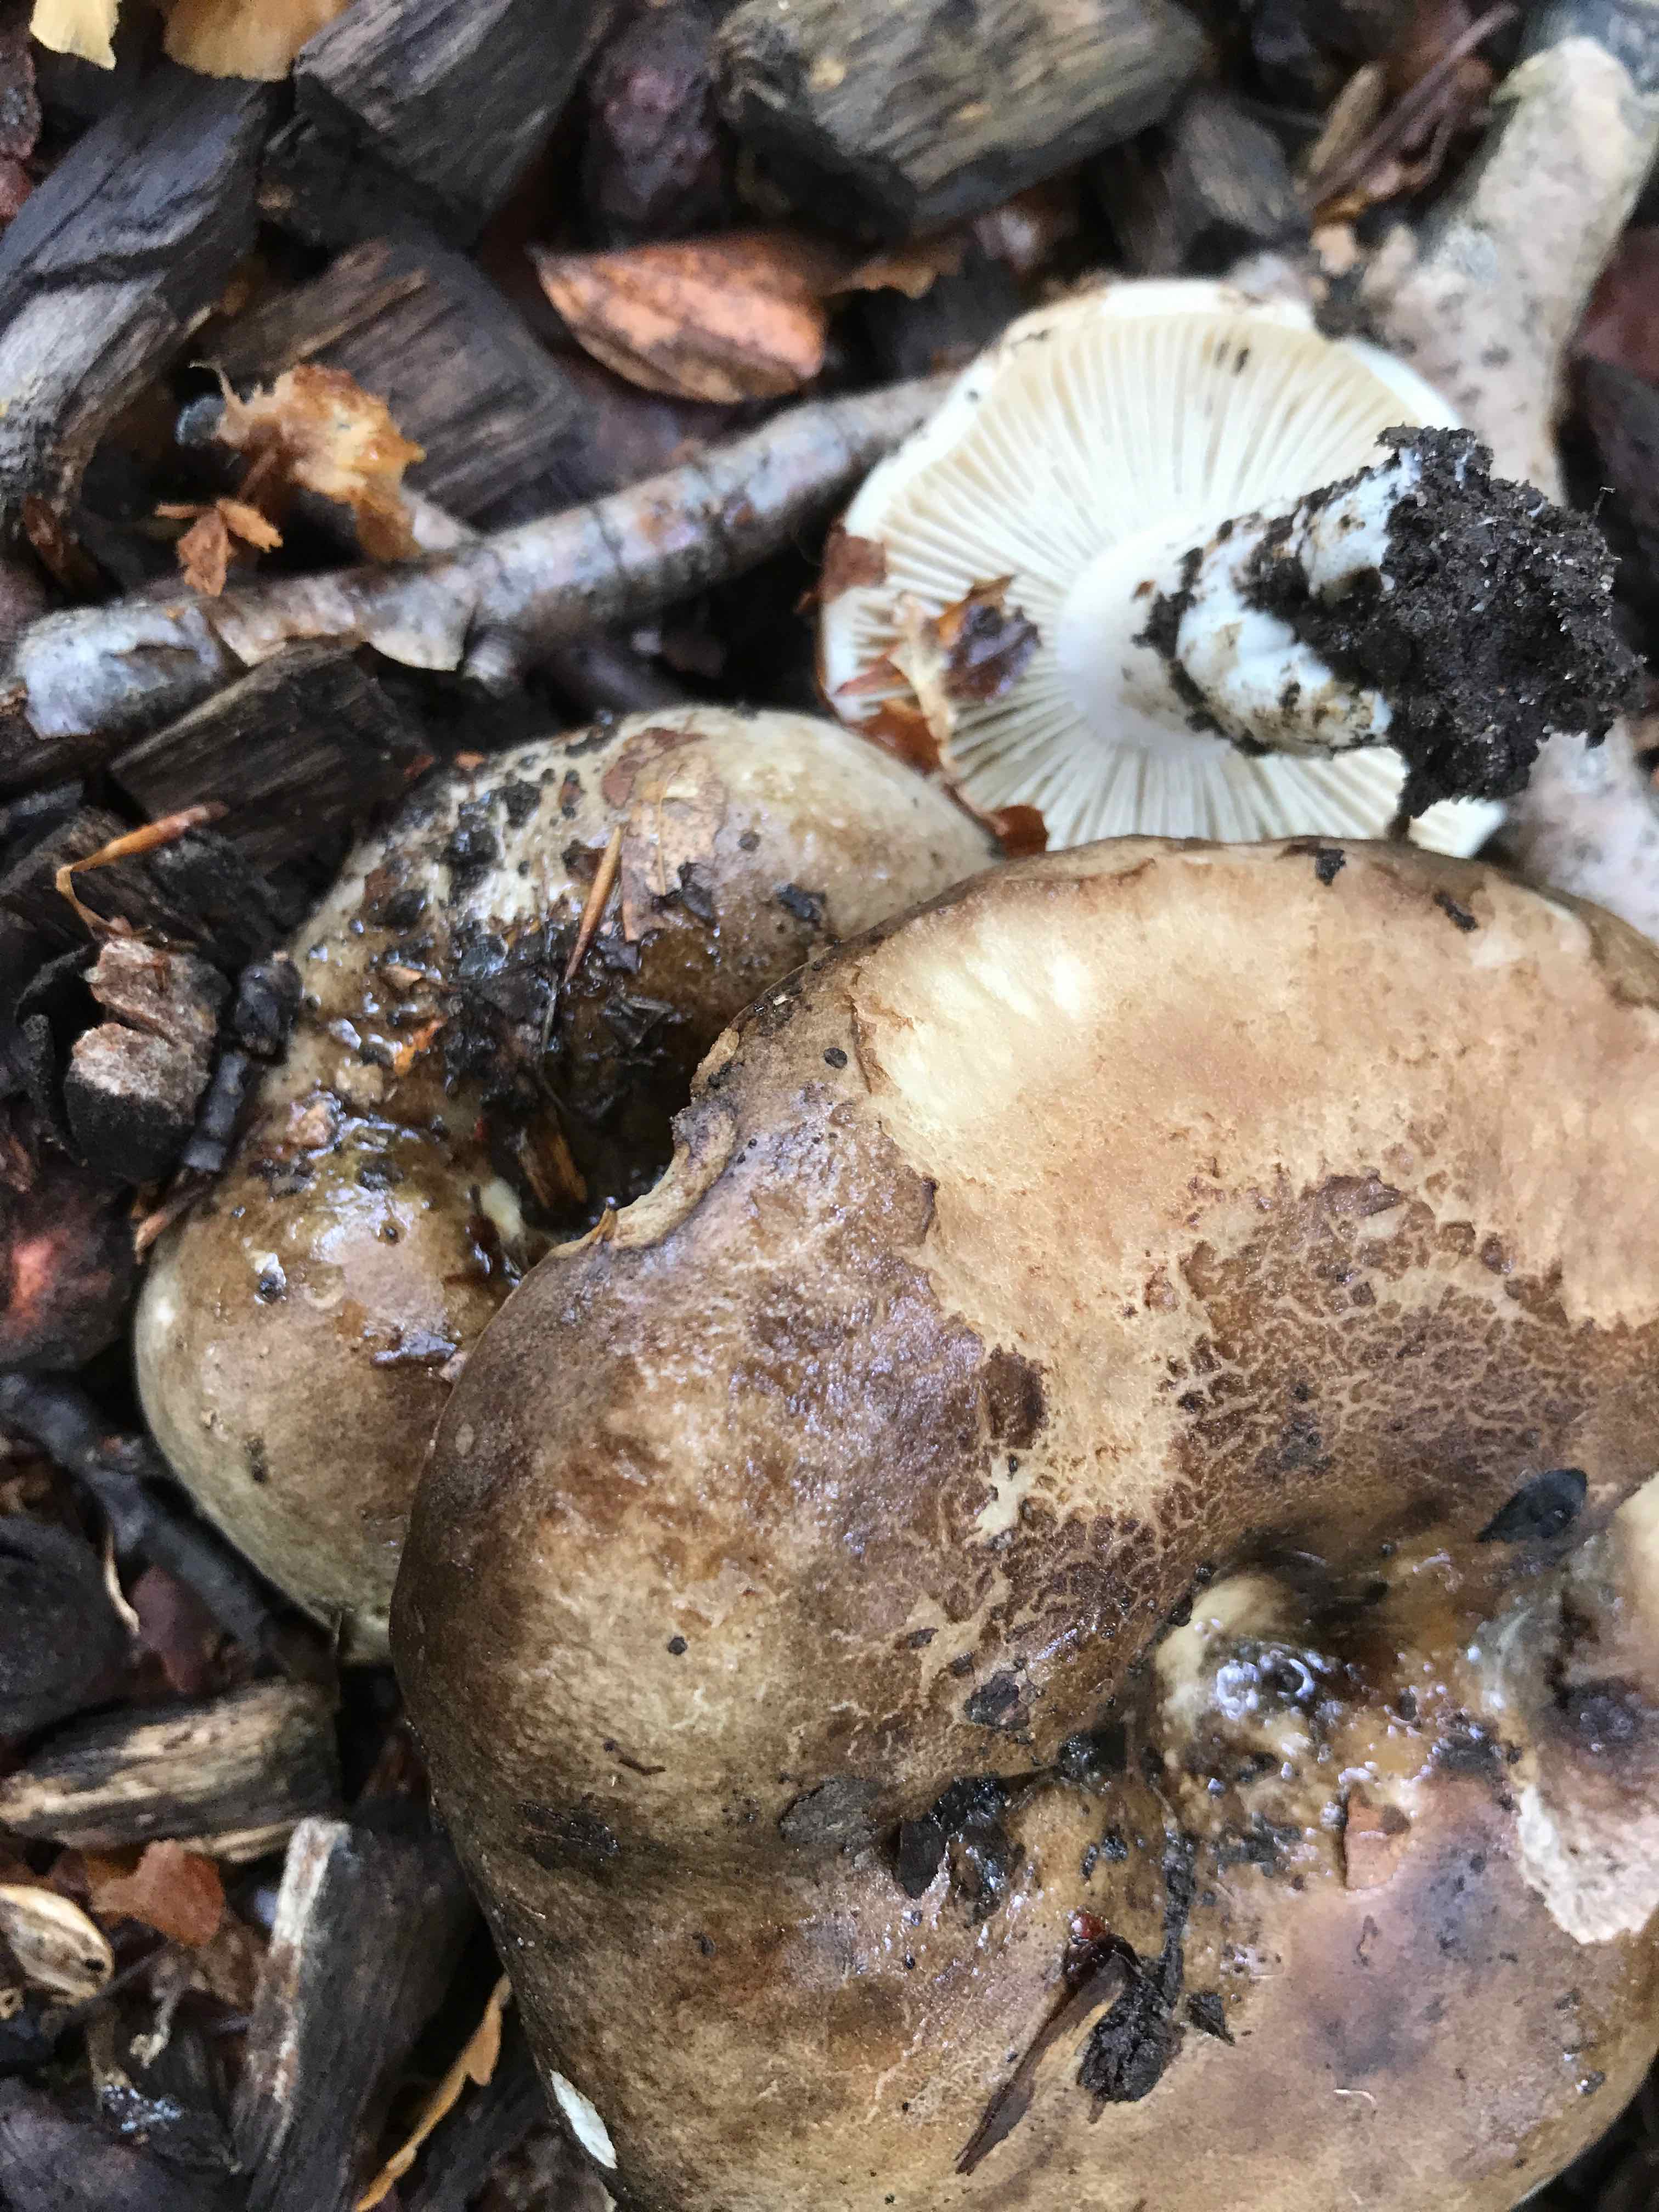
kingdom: Fungi
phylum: Basidiomycota
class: Agaricomycetes
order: Russulales
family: Russulaceae
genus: Russula
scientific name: Russula adusta
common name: sværtende skørhat
